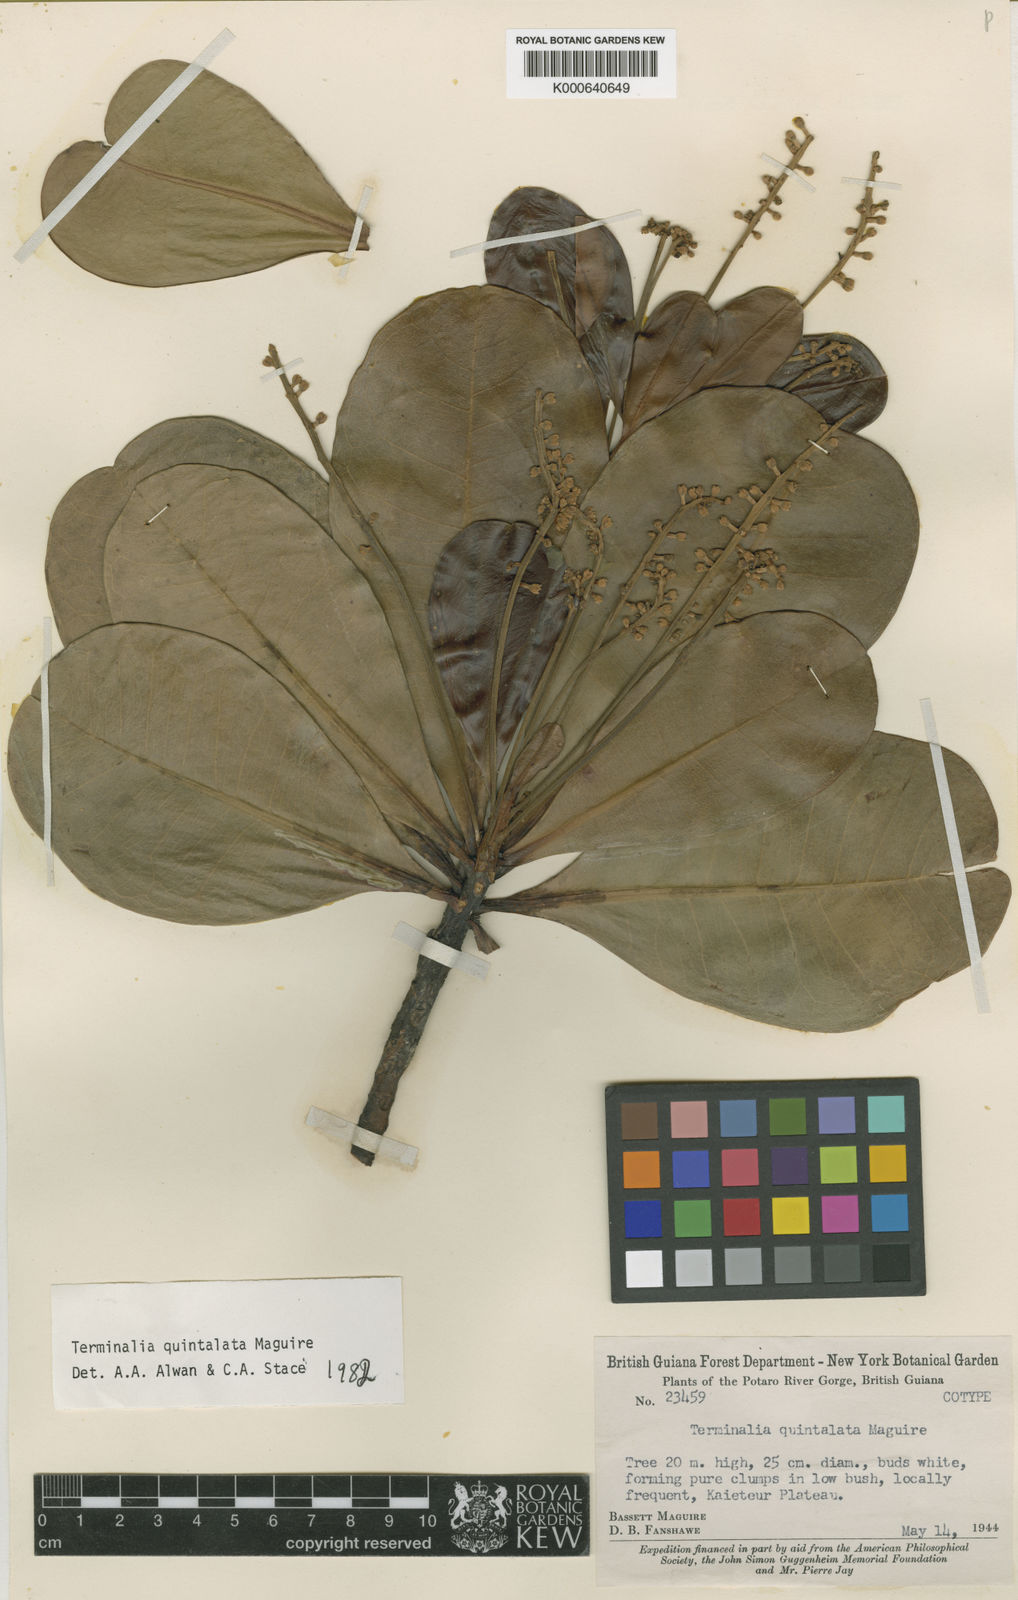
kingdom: Plantae
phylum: Tracheophyta
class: Magnoliopsida
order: Myrtales
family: Combretaceae
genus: Terminalia
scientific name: Terminalia quintalata
